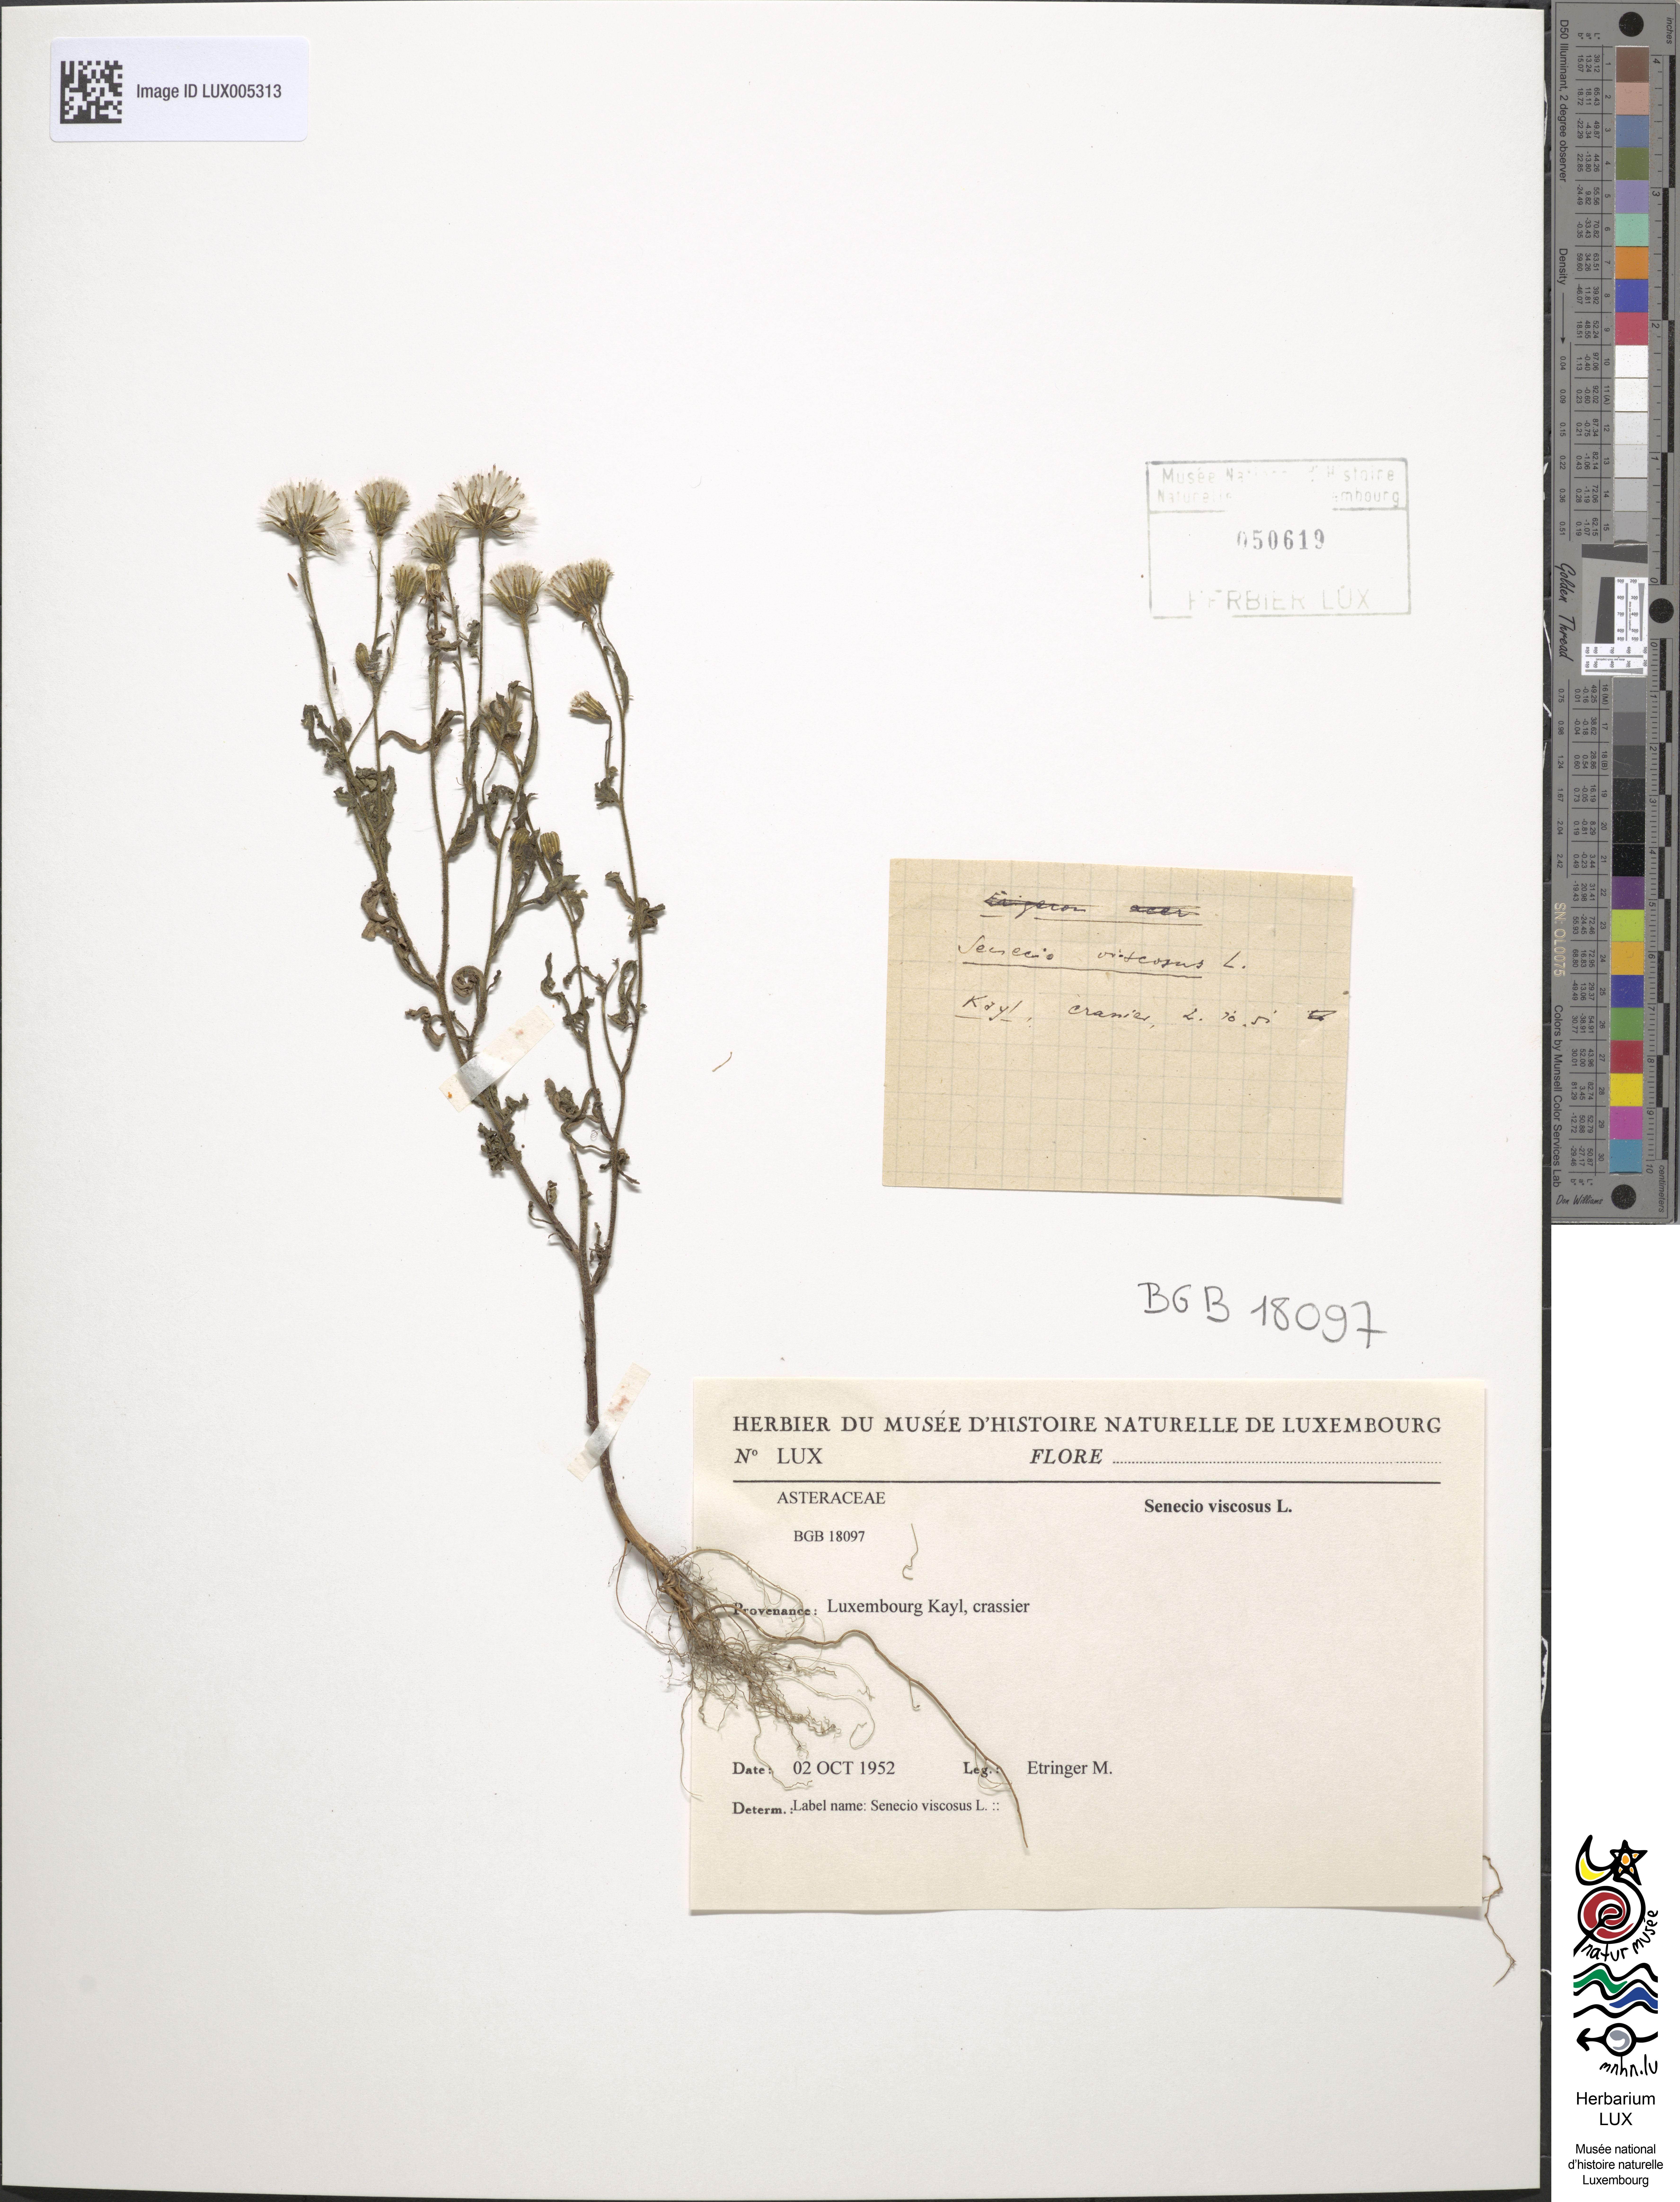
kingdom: Plantae
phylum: Tracheophyta
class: Magnoliopsida
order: Asterales
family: Asteraceae
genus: Senecio
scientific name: Senecio viscosus
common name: Sticky groundsel
